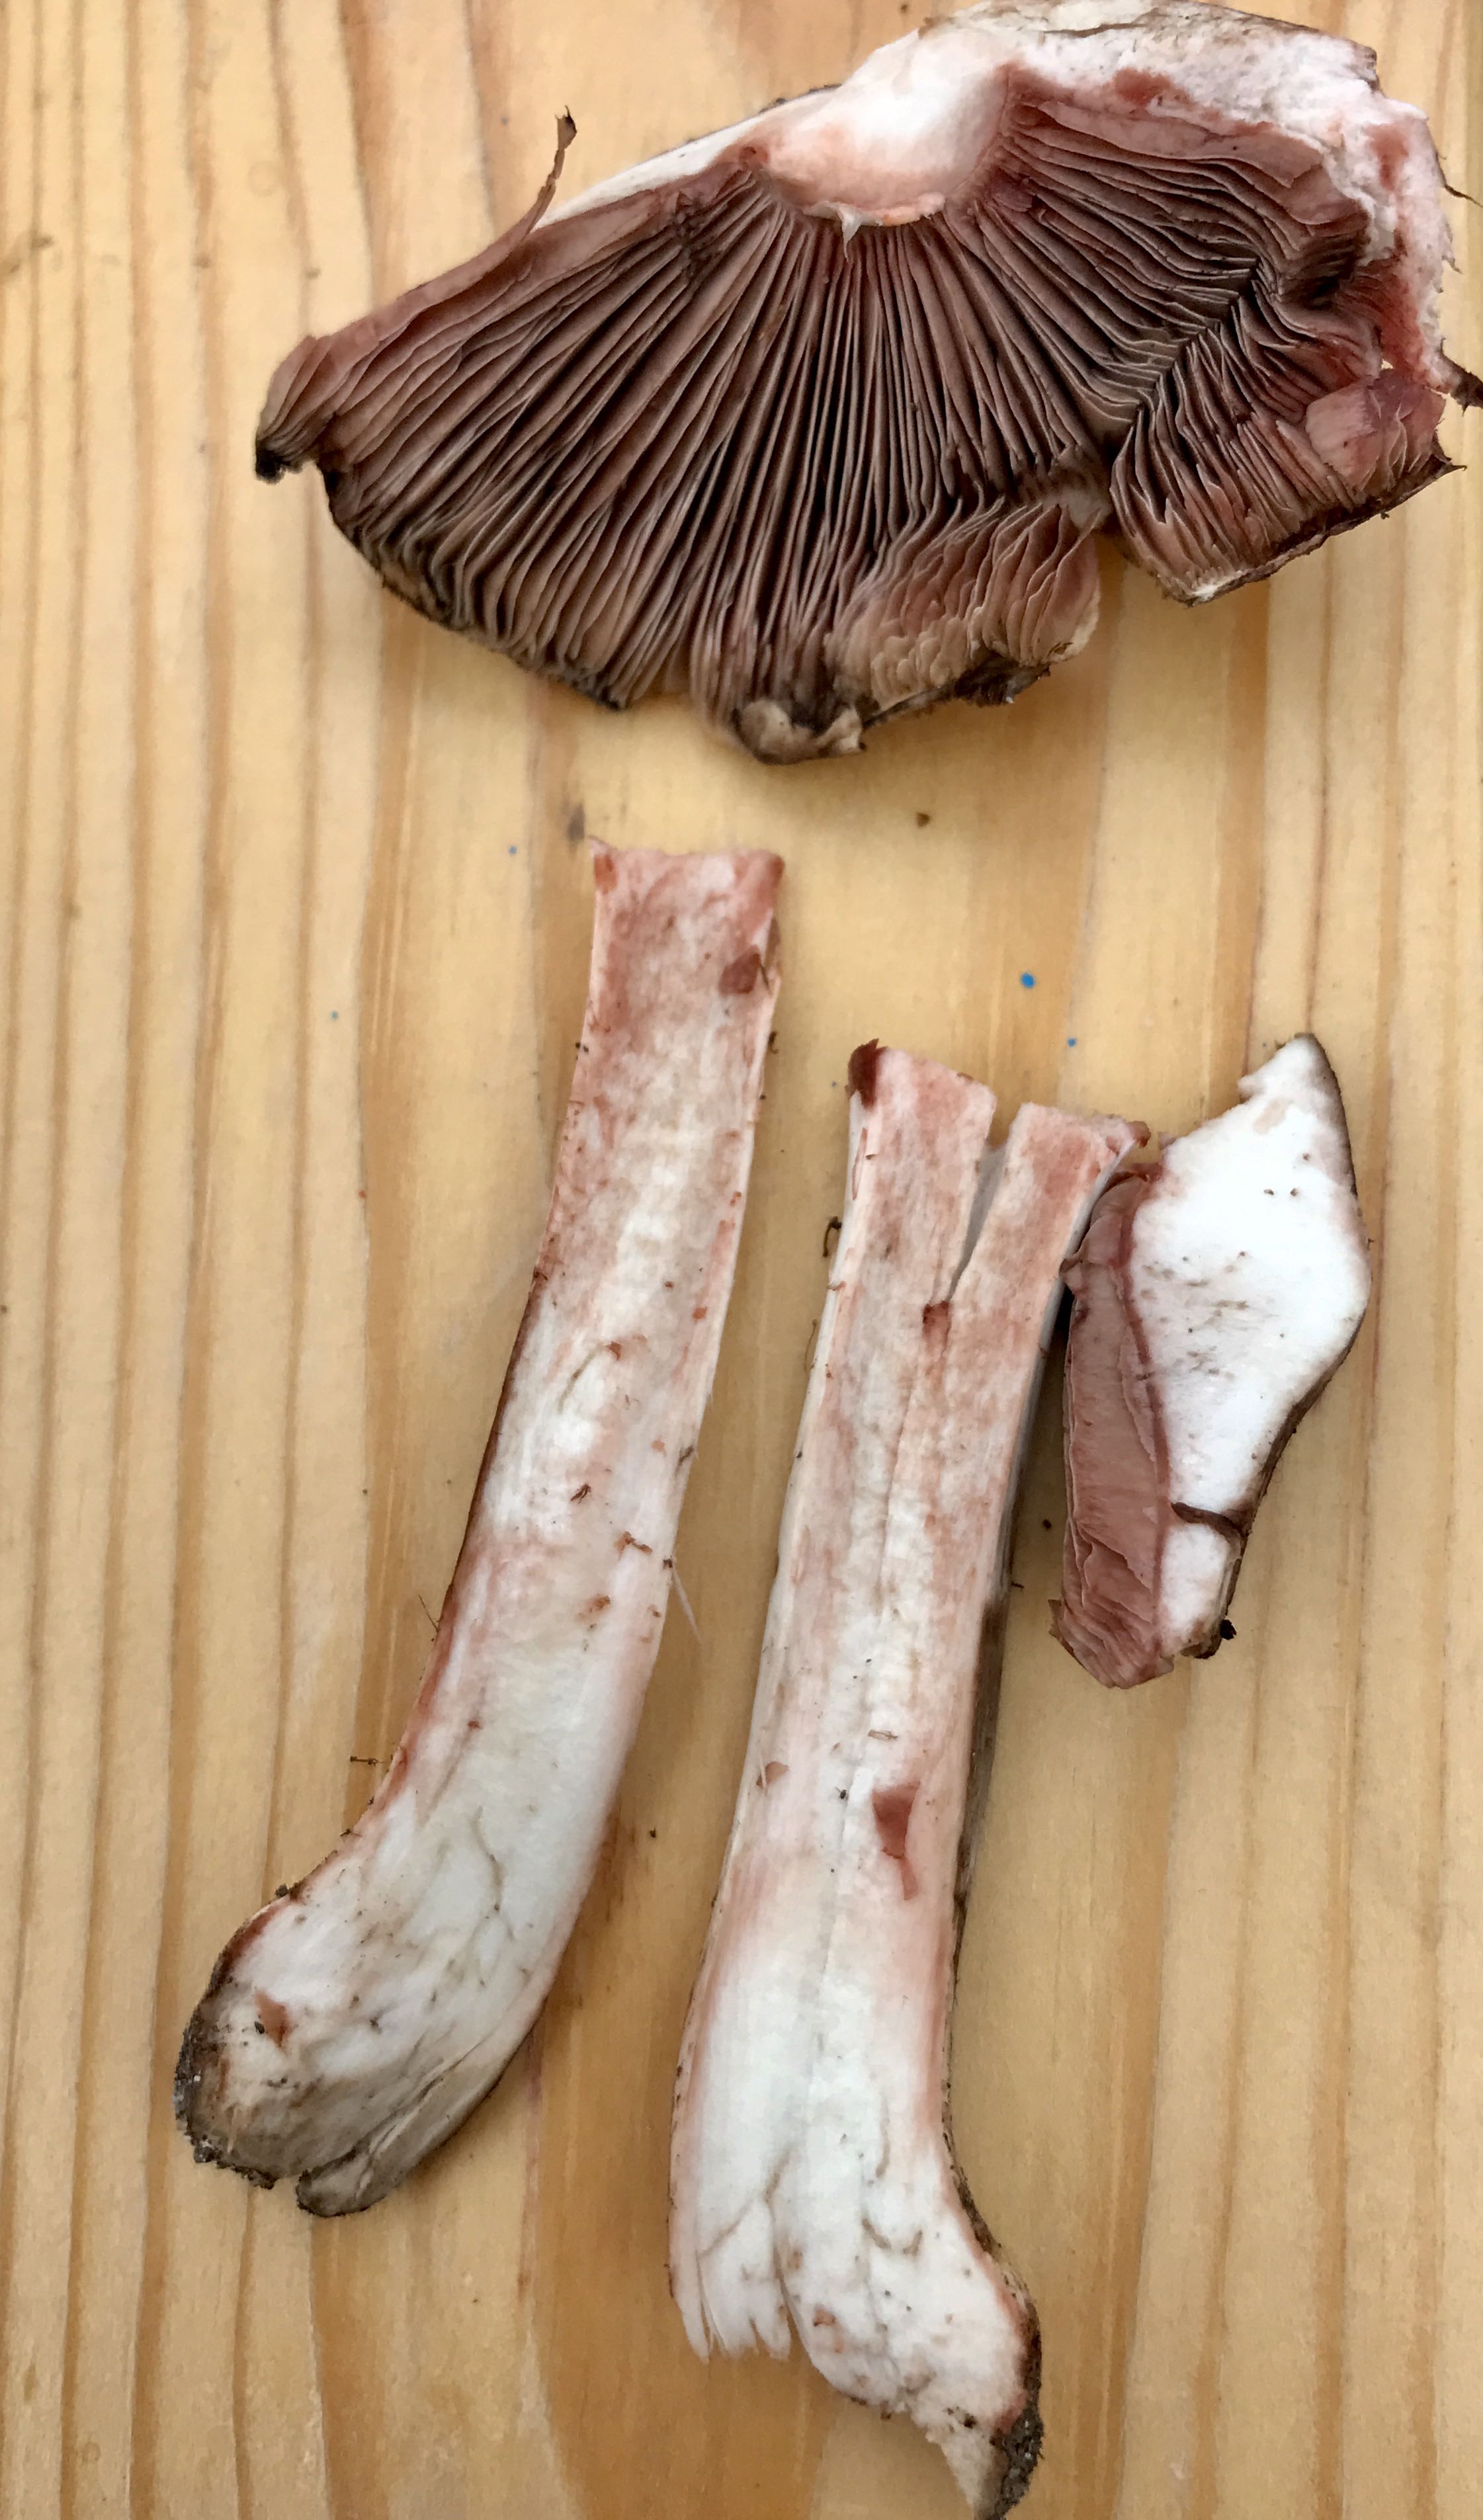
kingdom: Fungi
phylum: Basidiomycota
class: Agaricomycetes
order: Agaricales
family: Agaricaceae
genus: Agaricus
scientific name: Agaricus
